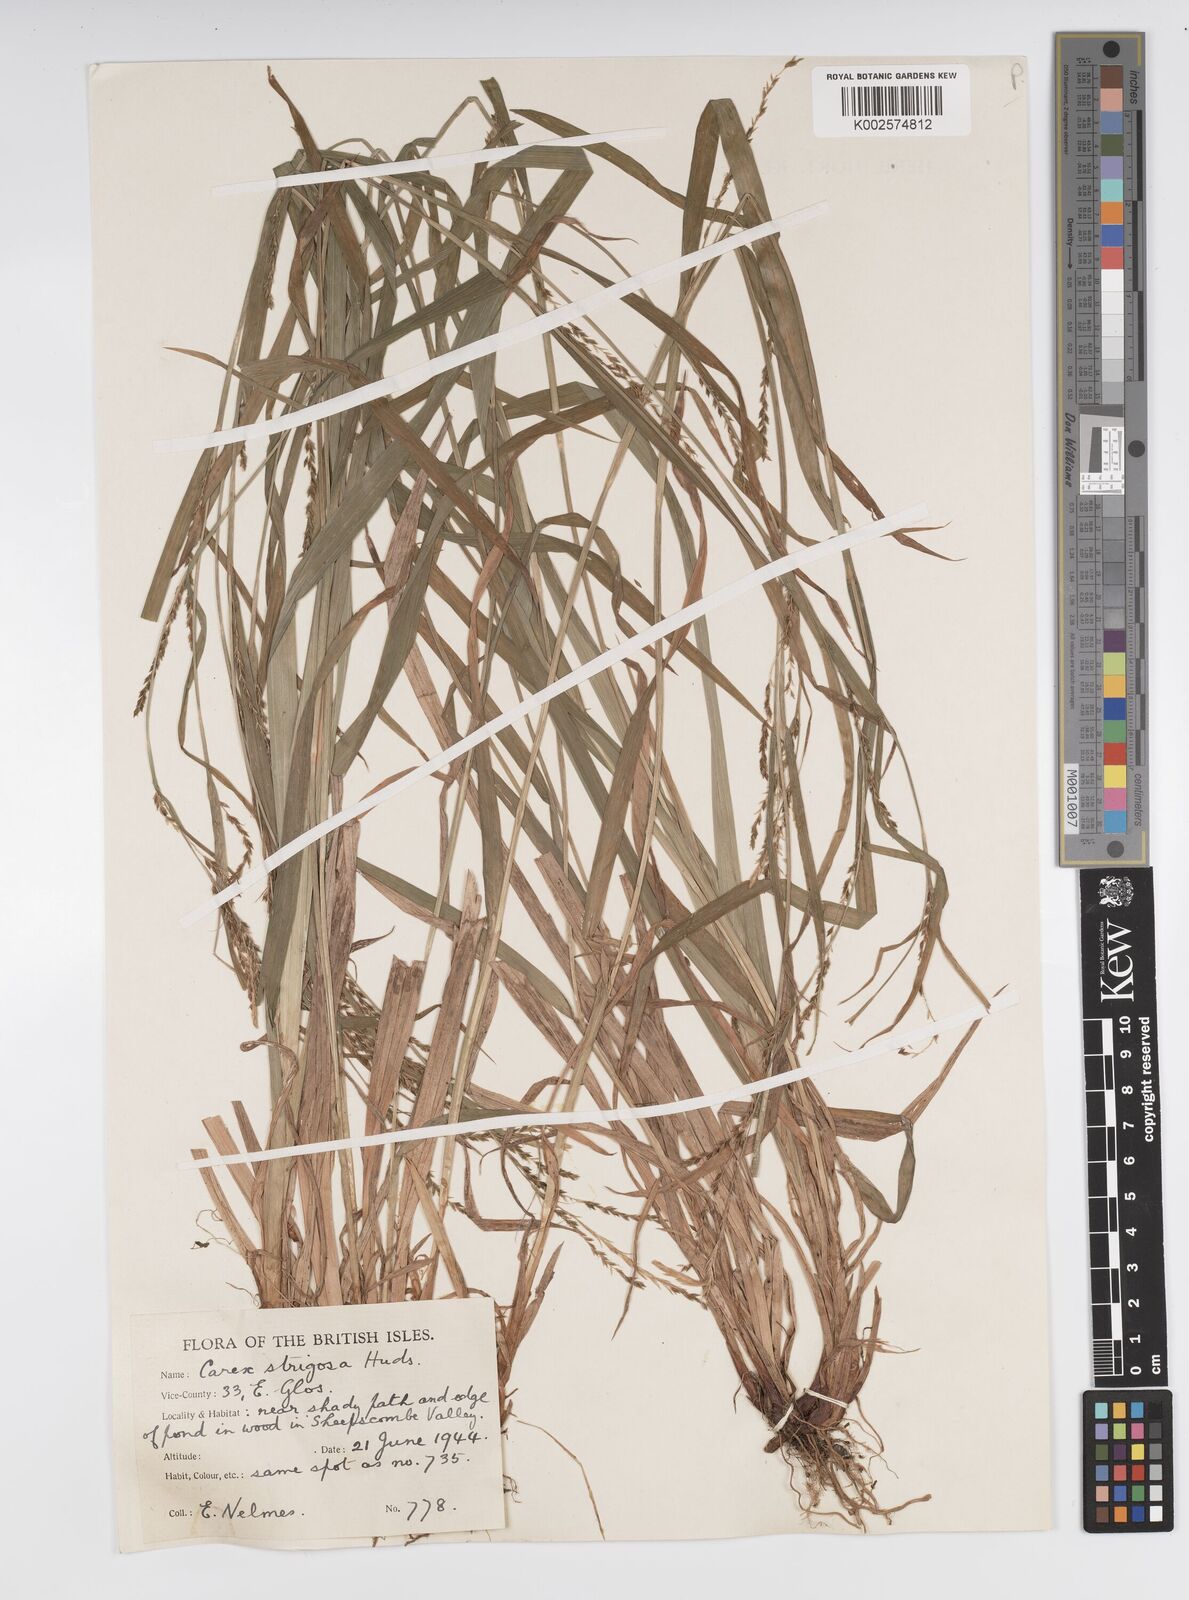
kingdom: Plantae
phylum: Tracheophyta
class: Liliopsida
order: Poales
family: Cyperaceae
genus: Carex
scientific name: Carex strigosa
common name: Thin-spiked wood-sedge
